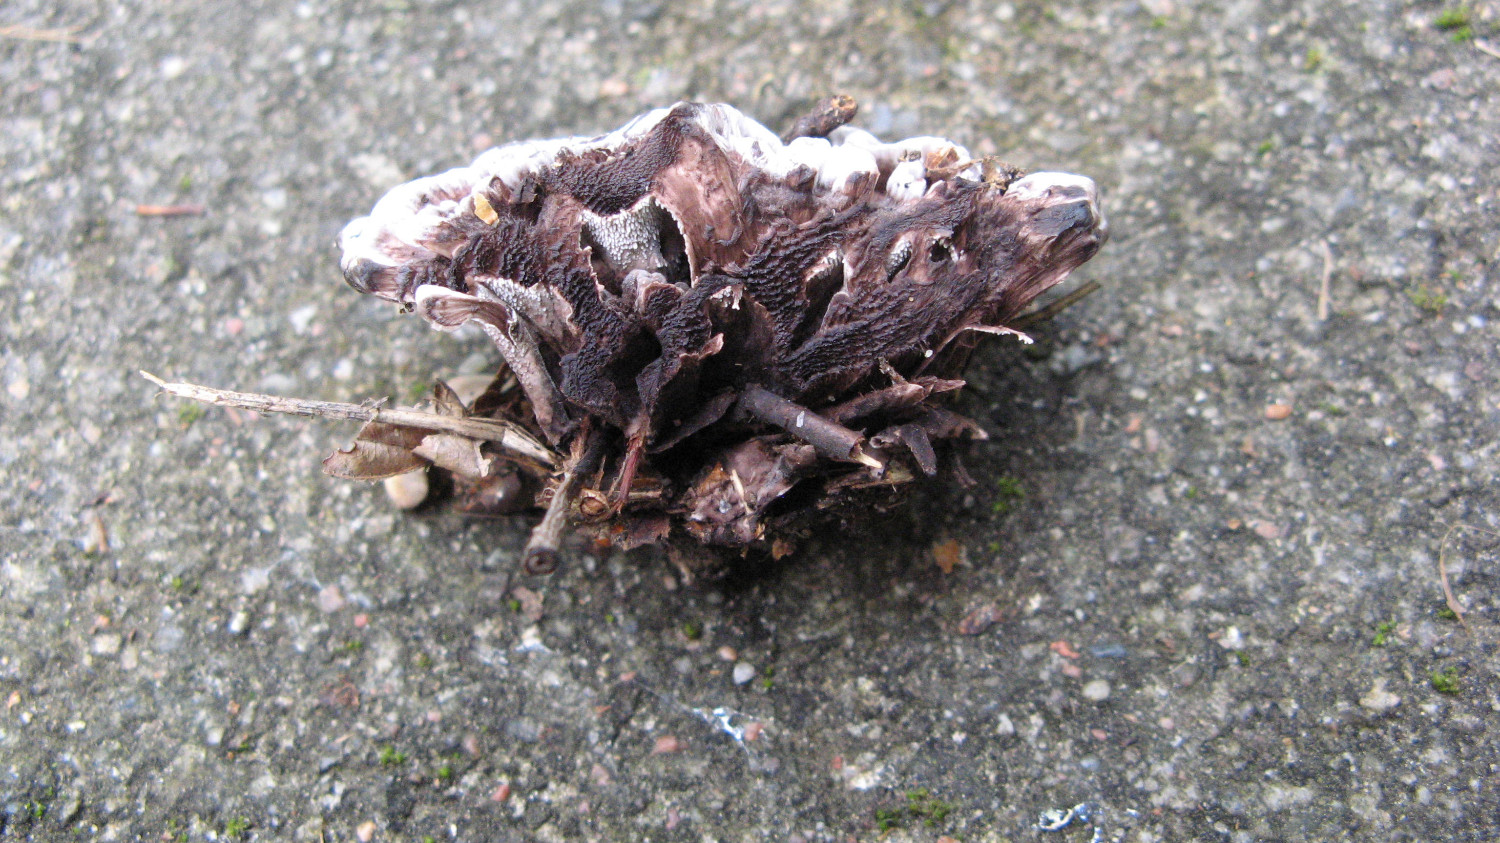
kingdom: Fungi
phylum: Basidiomycota
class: Agaricomycetes
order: Thelephorales
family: Bankeraceae
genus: Hydnellum
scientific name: Hydnellum concrescens
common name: bæltet korkpigsvamp
